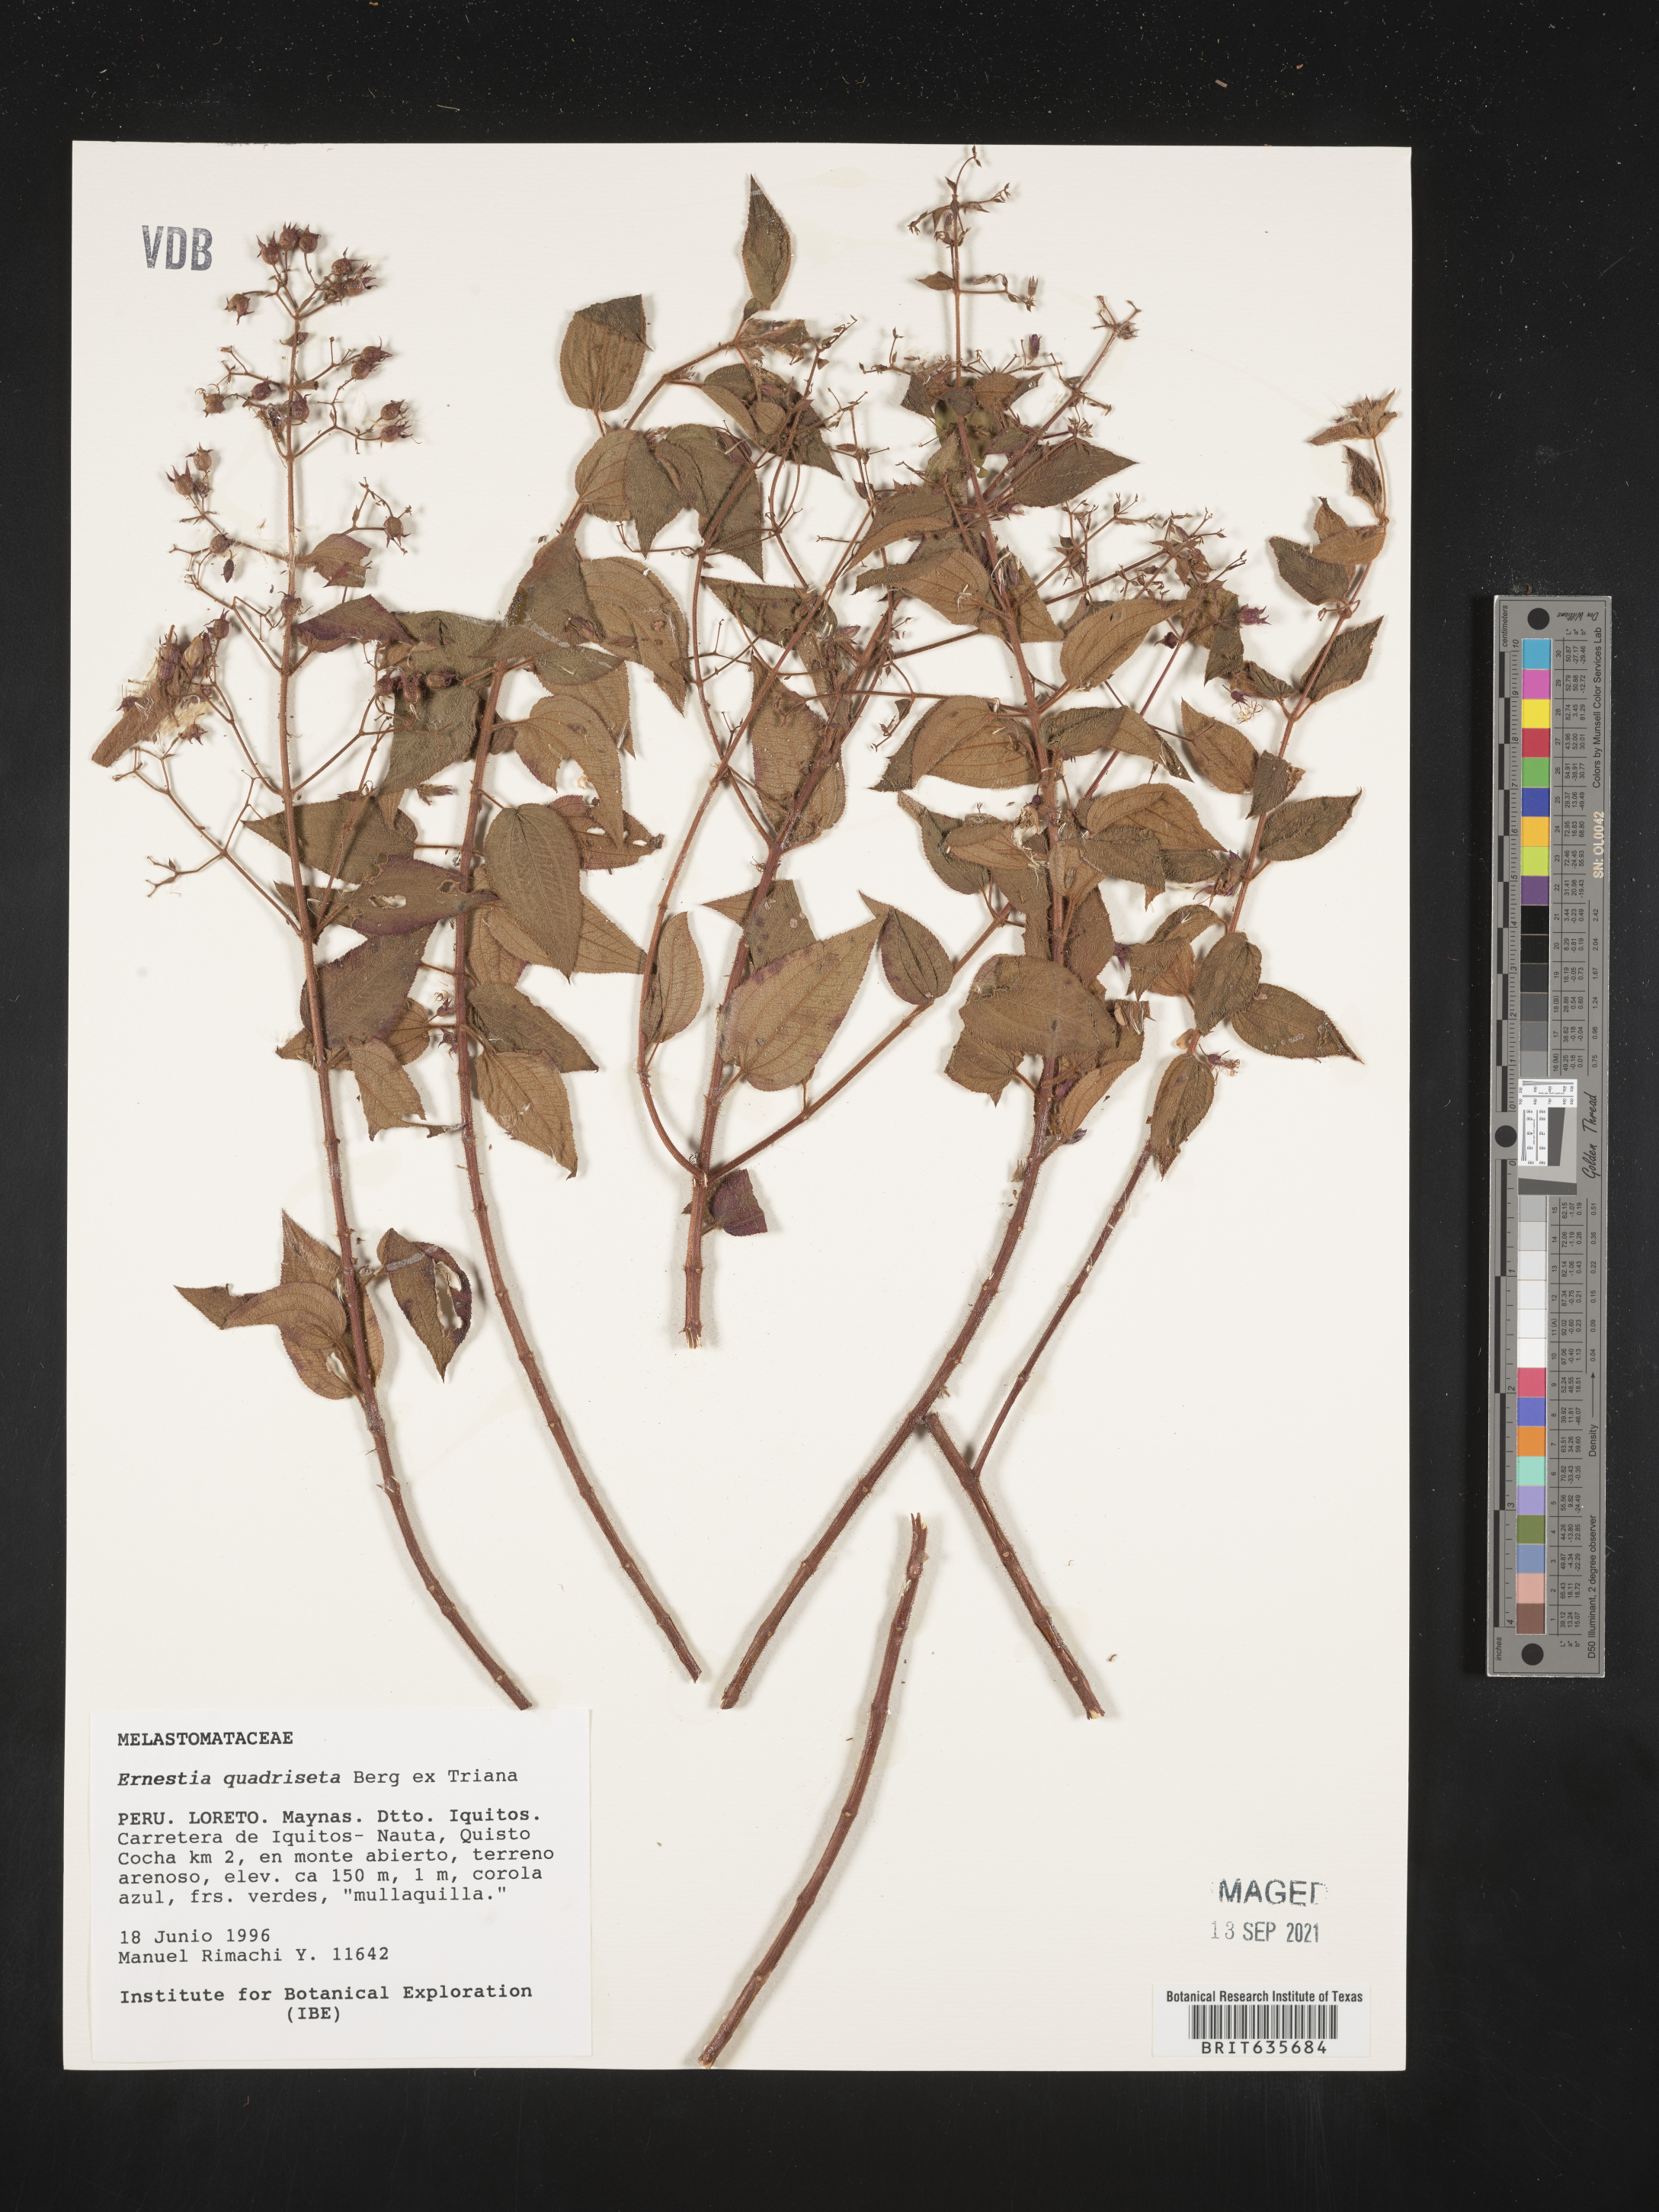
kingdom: Plantae
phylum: Tracheophyta
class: Magnoliopsida
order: Myrtales
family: Melastomataceae
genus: Ernestia
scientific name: Ernestia
